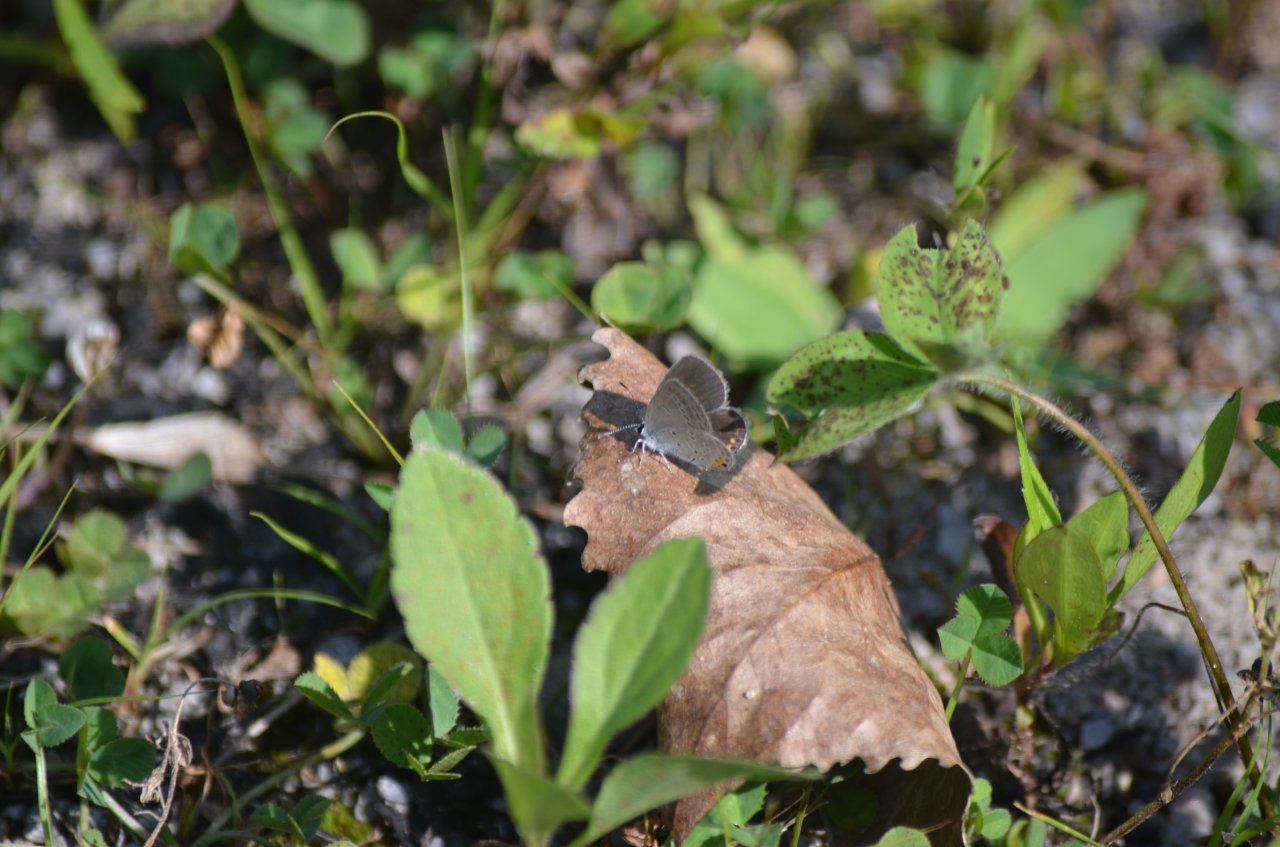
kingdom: Animalia
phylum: Arthropoda
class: Insecta
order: Lepidoptera
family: Lycaenidae
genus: Elkalyce
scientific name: Elkalyce comyntas
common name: Eastern Tailed-Blue
